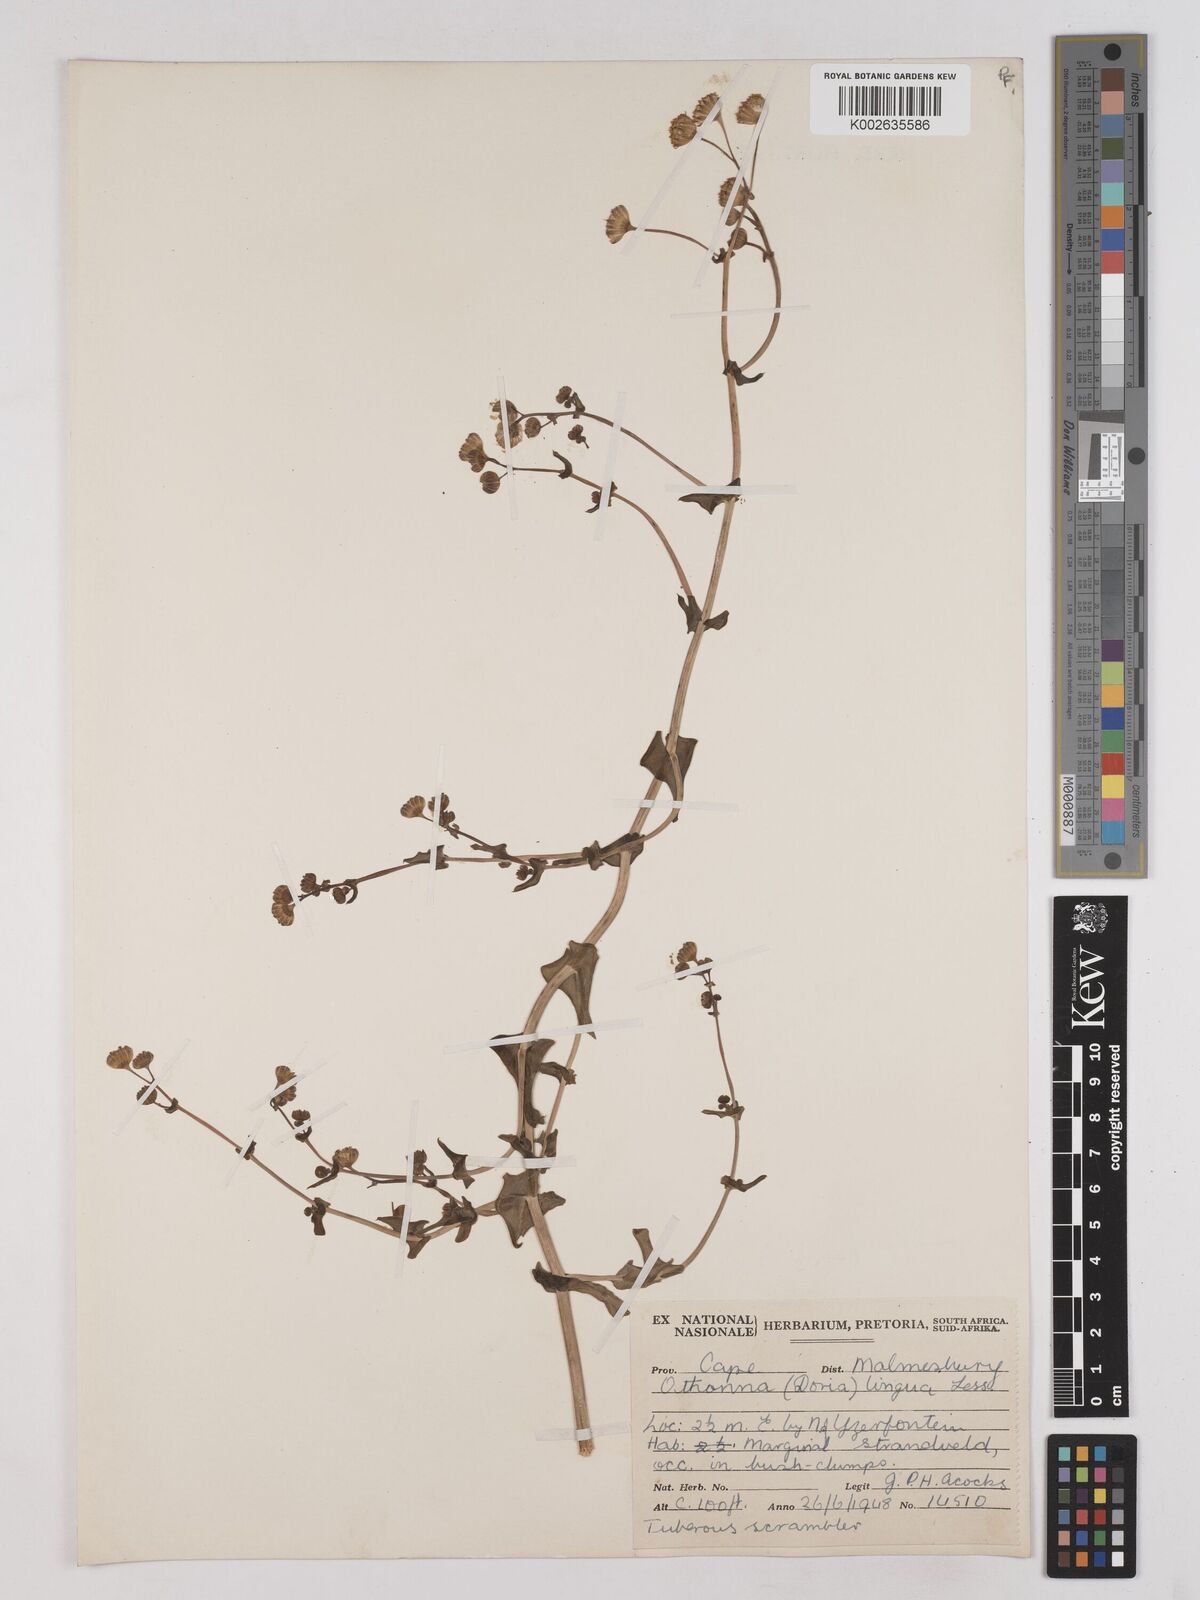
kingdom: Plantae
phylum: Tracheophyta
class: Magnoliopsida
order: Asterales
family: Asteraceae
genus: Othonna
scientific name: Othonna bulbosa
